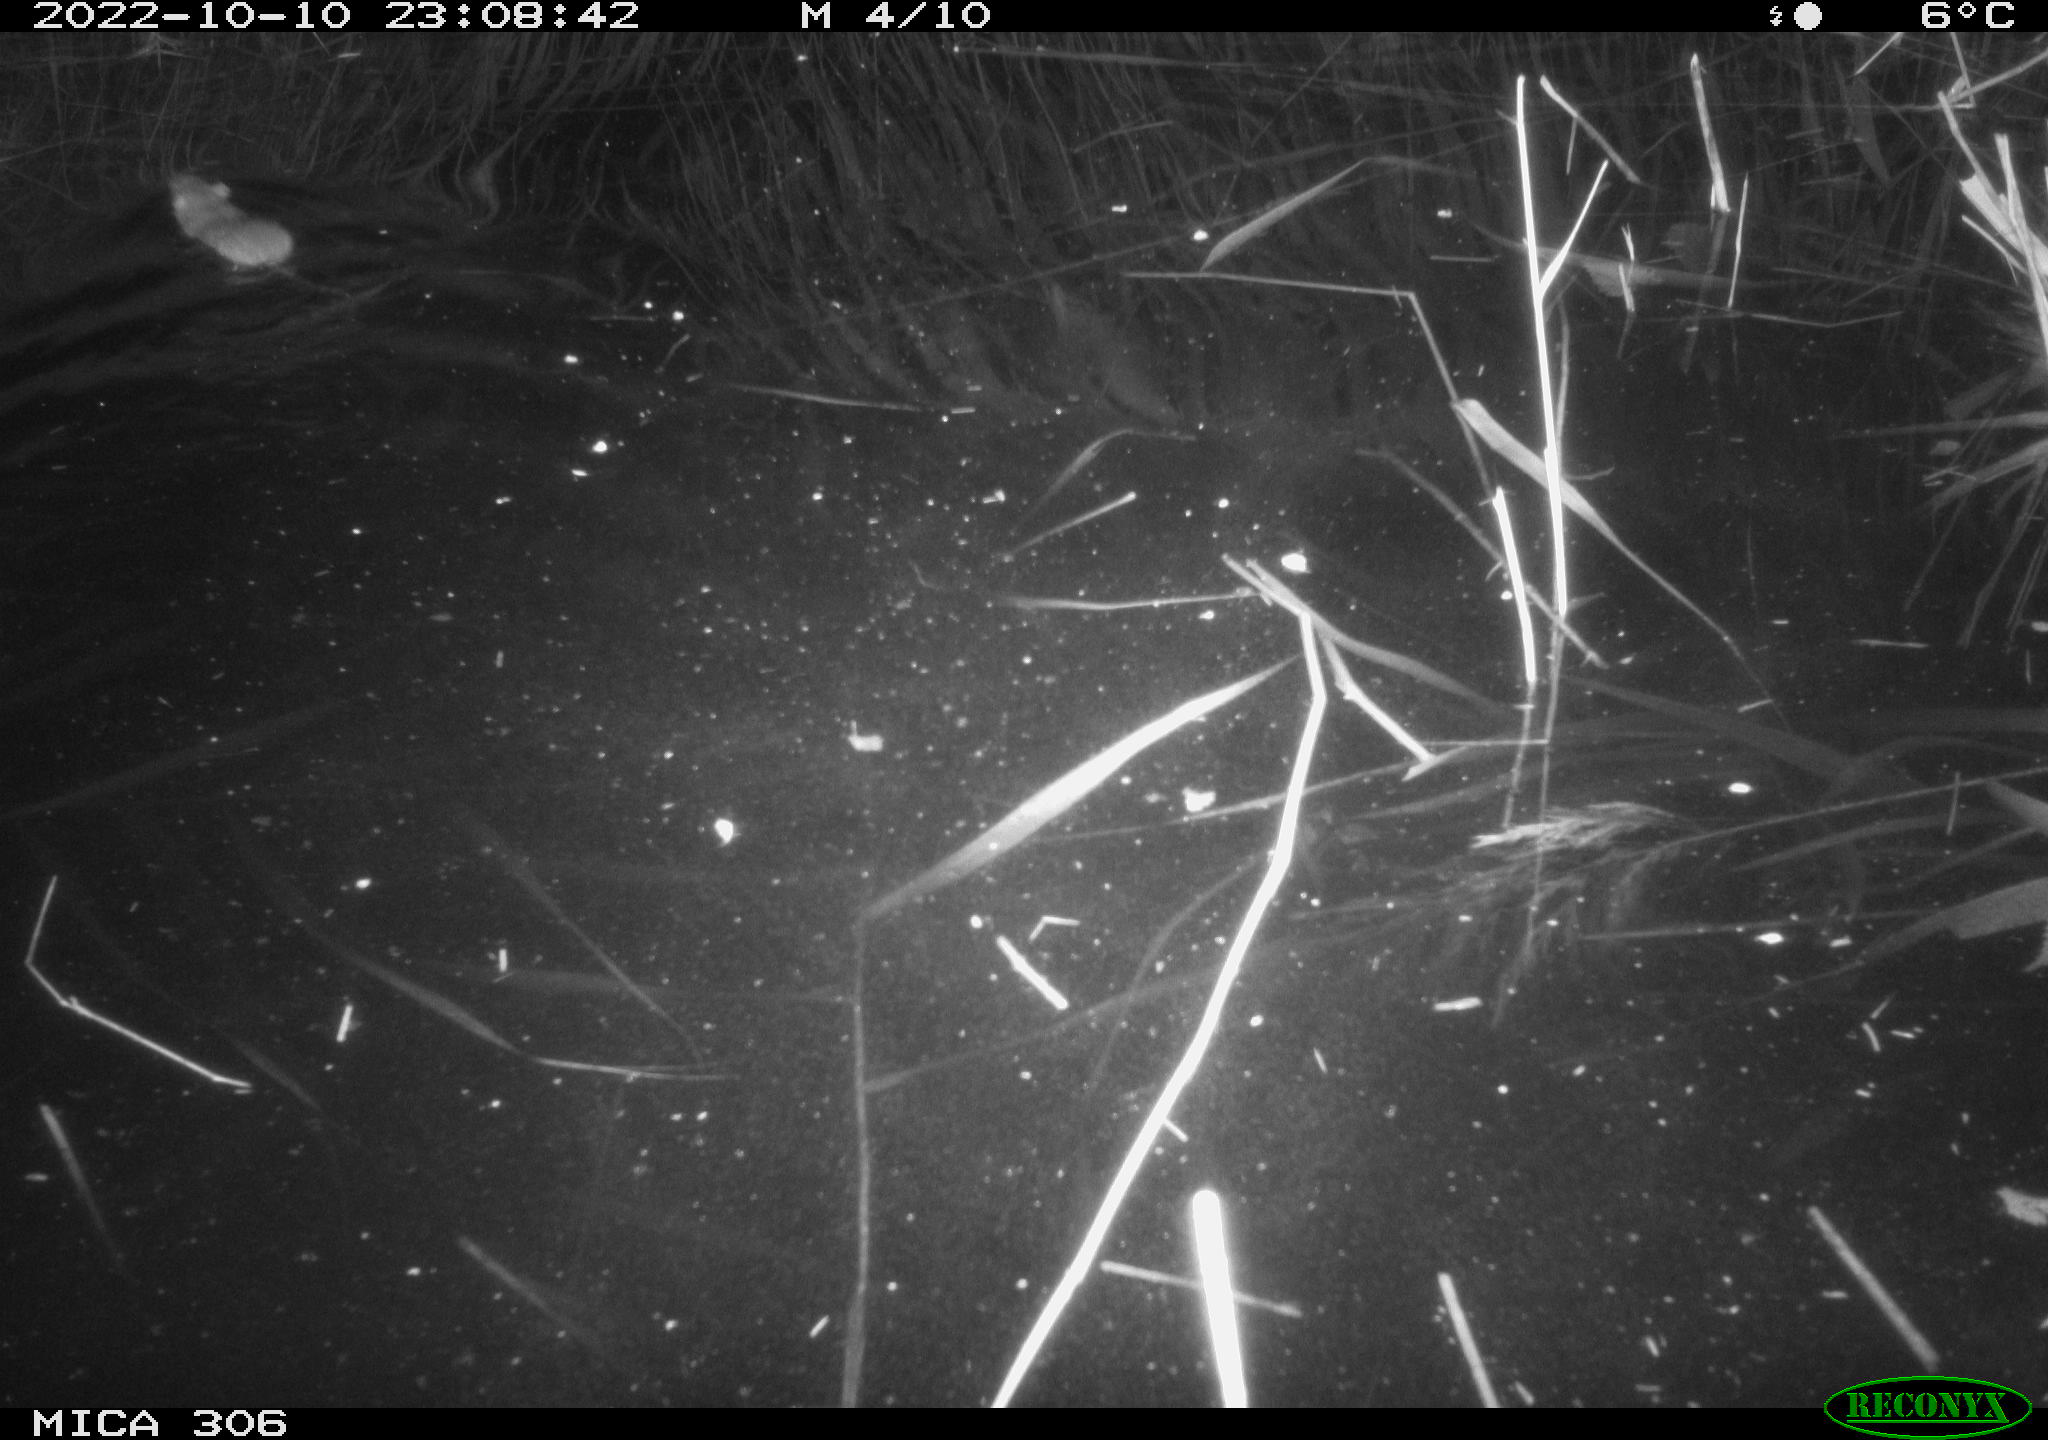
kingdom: Animalia
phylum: Chordata
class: Mammalia
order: Rodentia
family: Muridae
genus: Rattus
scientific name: Rattus norvegicus
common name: Brown rat
